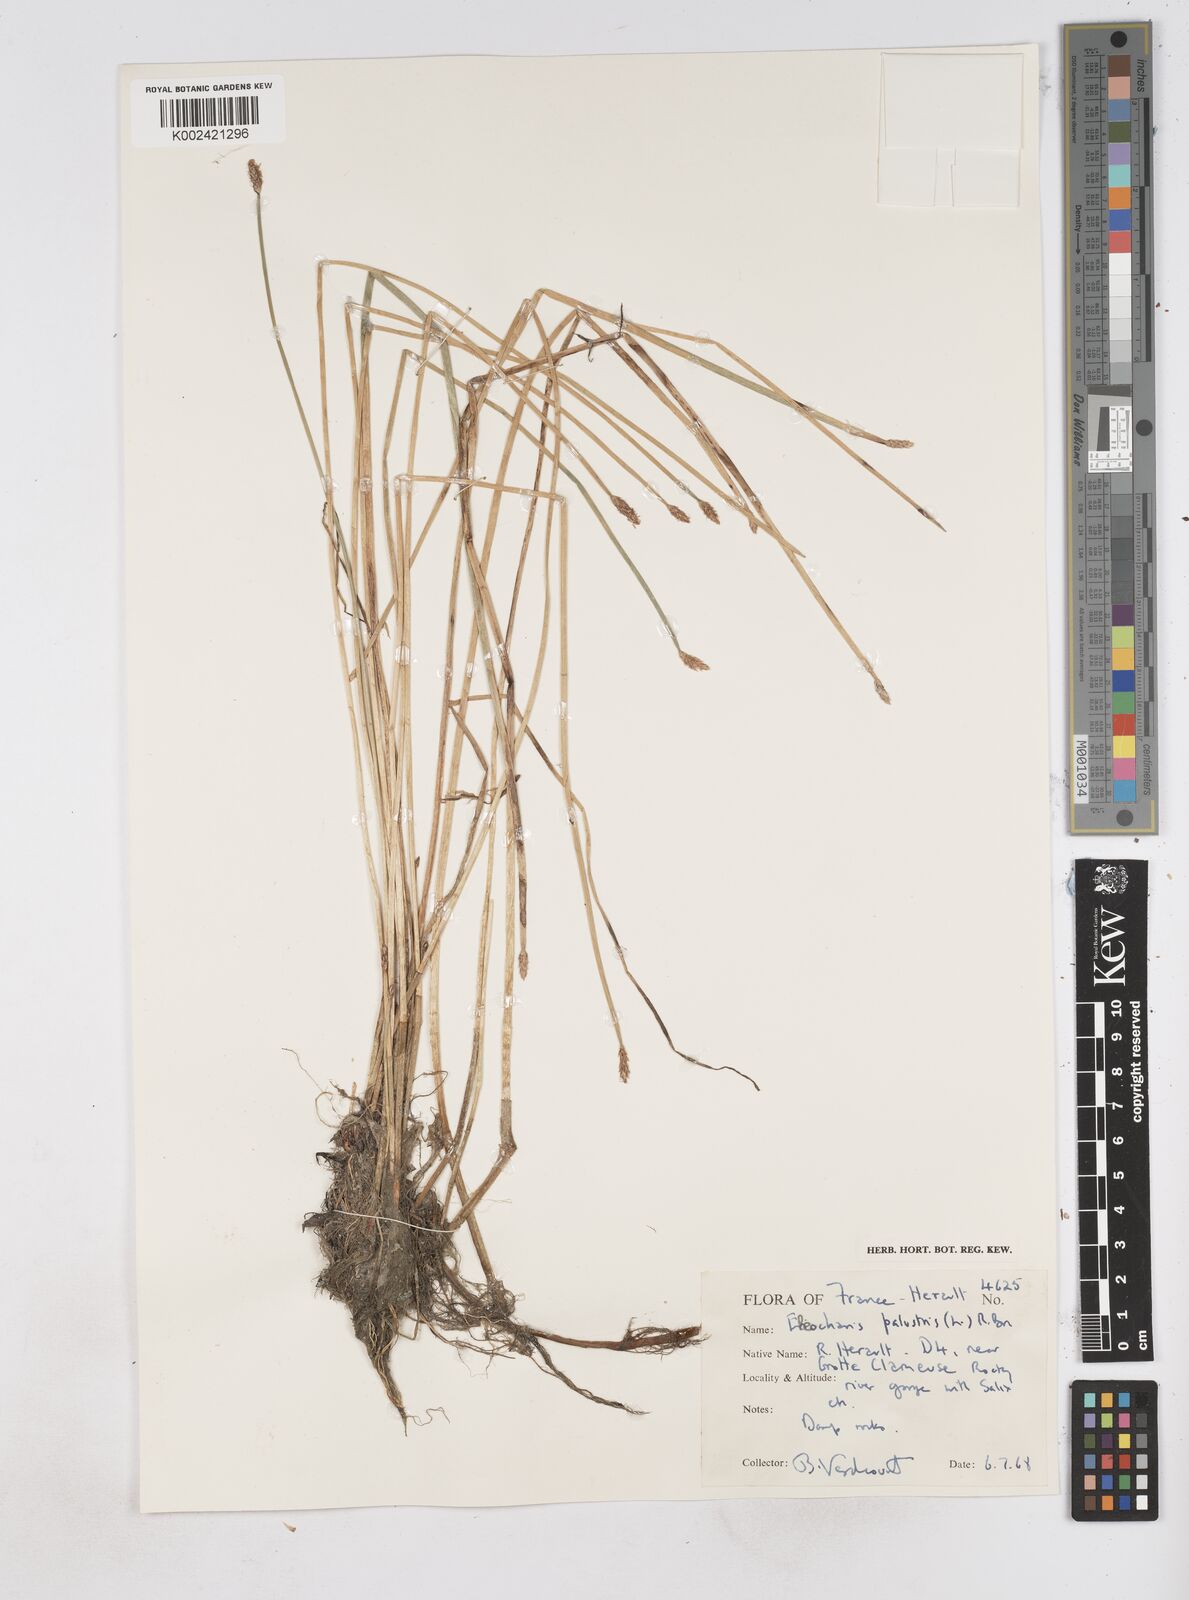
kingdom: Plantae
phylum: Tracheophyta
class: Liliopsida
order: Poales
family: Cyperaceae
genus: Eleocharis
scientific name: Eleocharis palustris
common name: Common spike-rush
